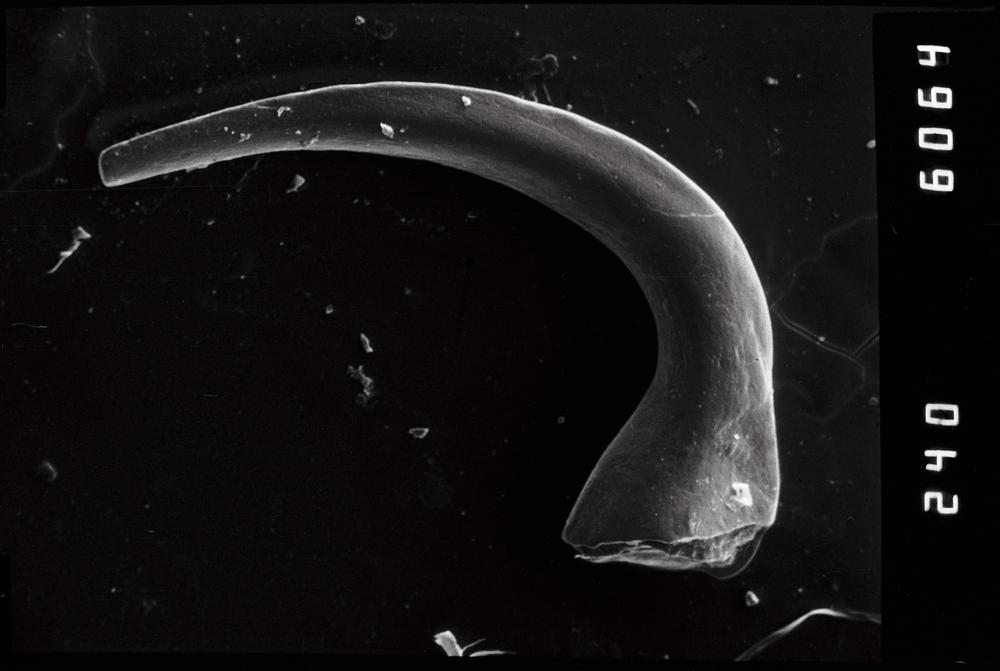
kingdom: Animalia
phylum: Chordata
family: Acodontidae
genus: Acodus
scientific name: Acodus similaris
